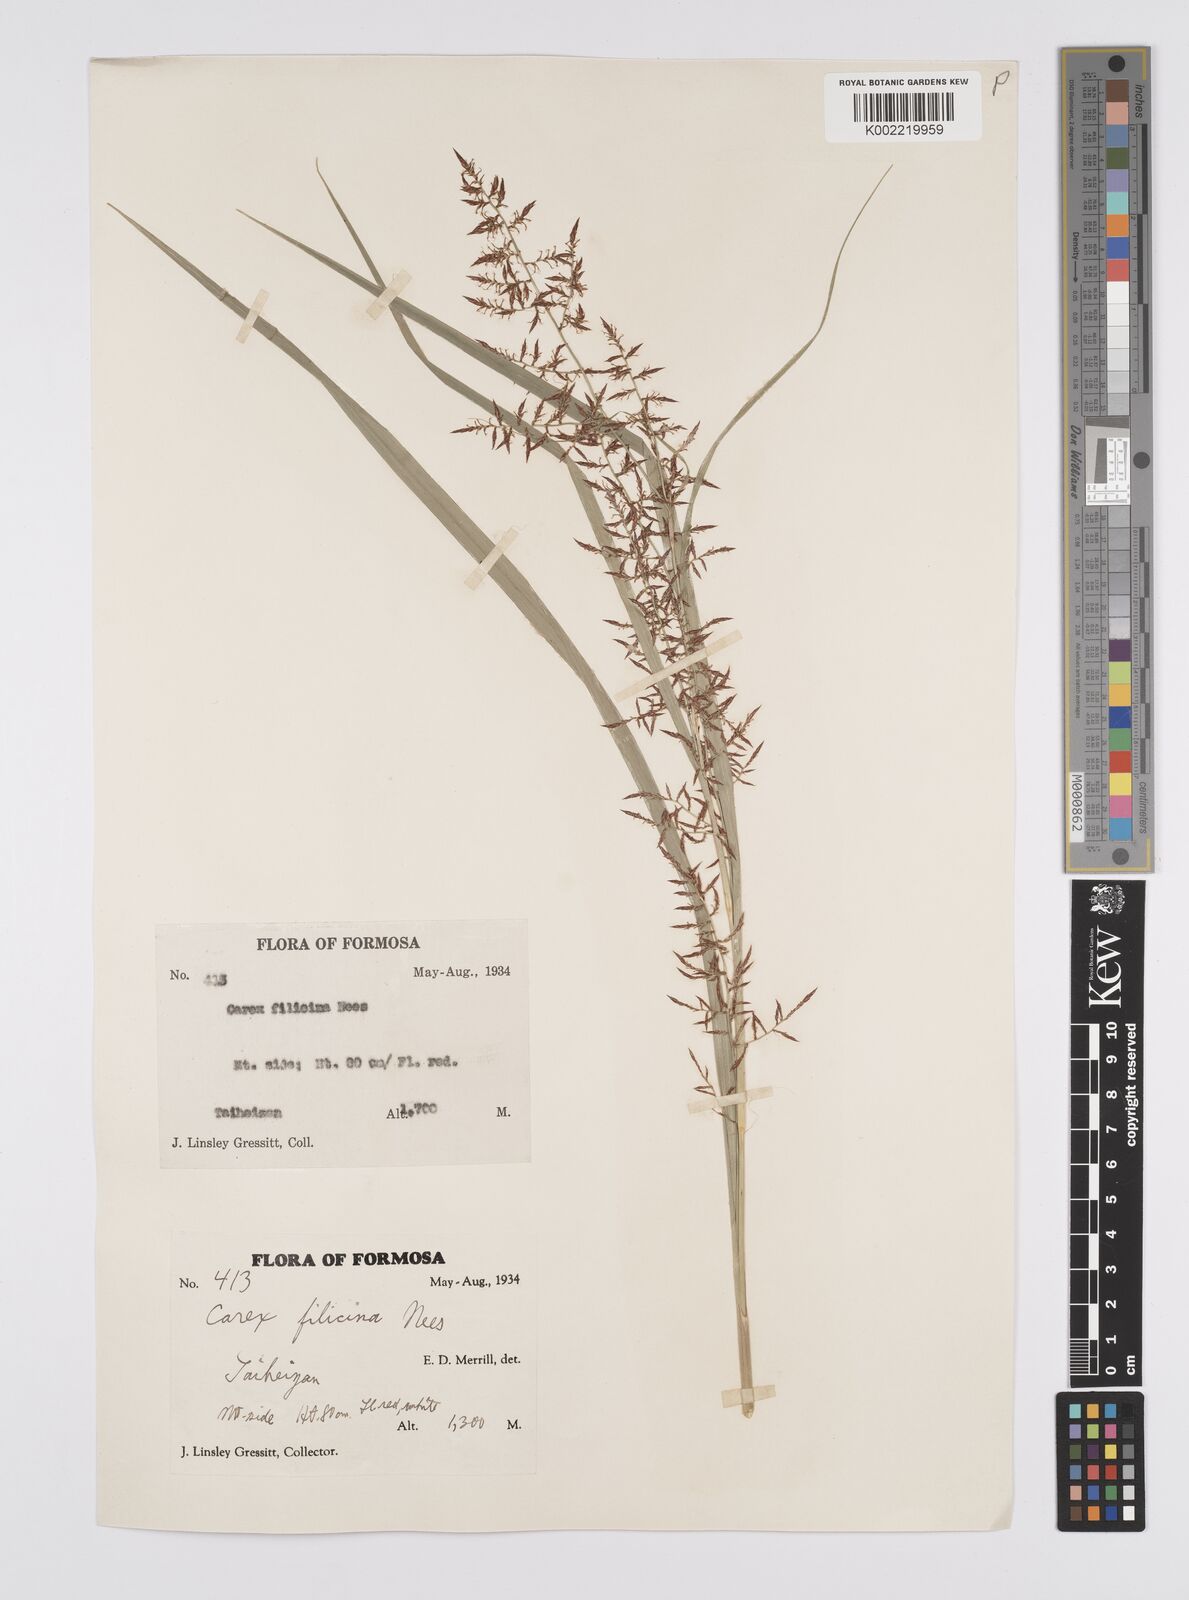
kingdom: Plantae
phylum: Tracheophyta
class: Liliopsida
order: Poales
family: Cyperaceae
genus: Carex
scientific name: Carex filicina
